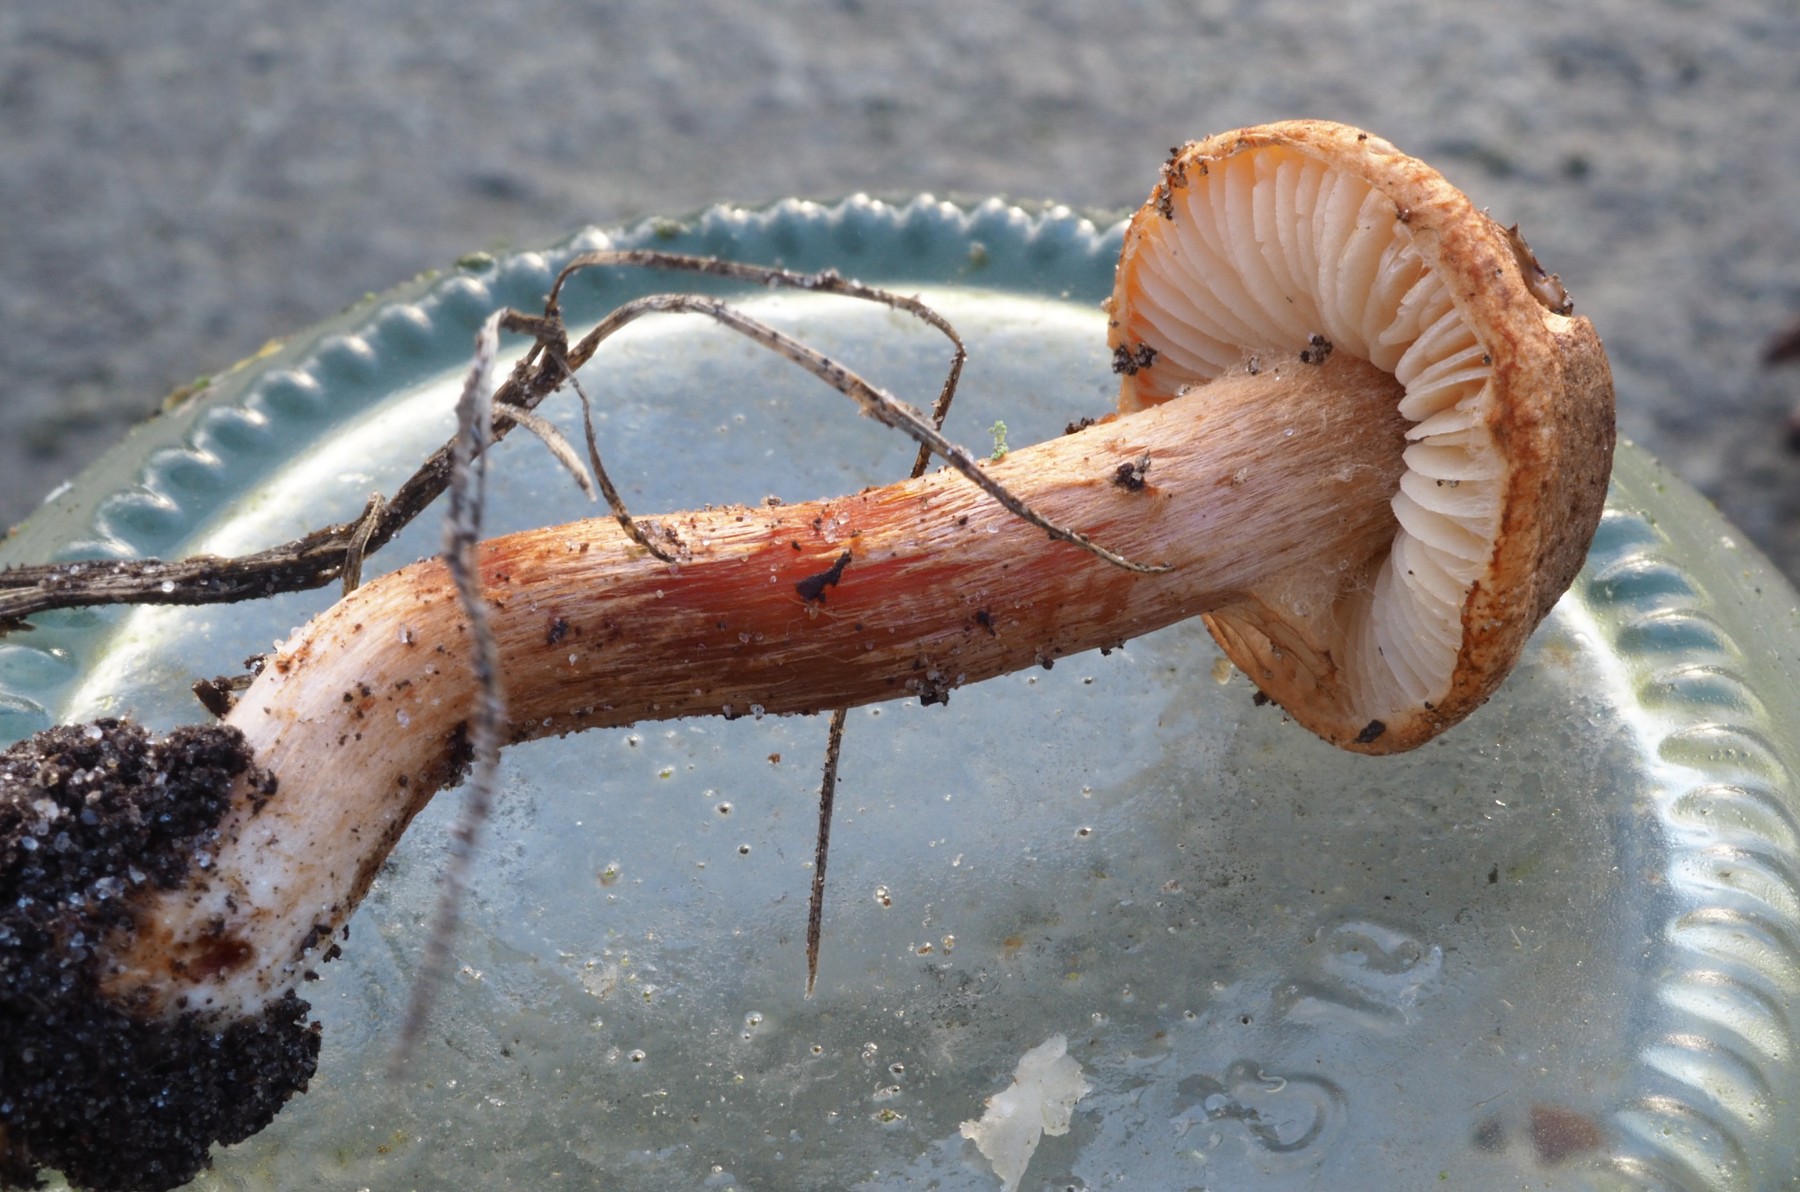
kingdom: Fungi
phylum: Basidiomycota
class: Agaricomycetes
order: Agaricales
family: Agaricaceae
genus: Leucocoprinus
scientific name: Leucocoprinus straminellus
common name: rustbrun parasolhat
